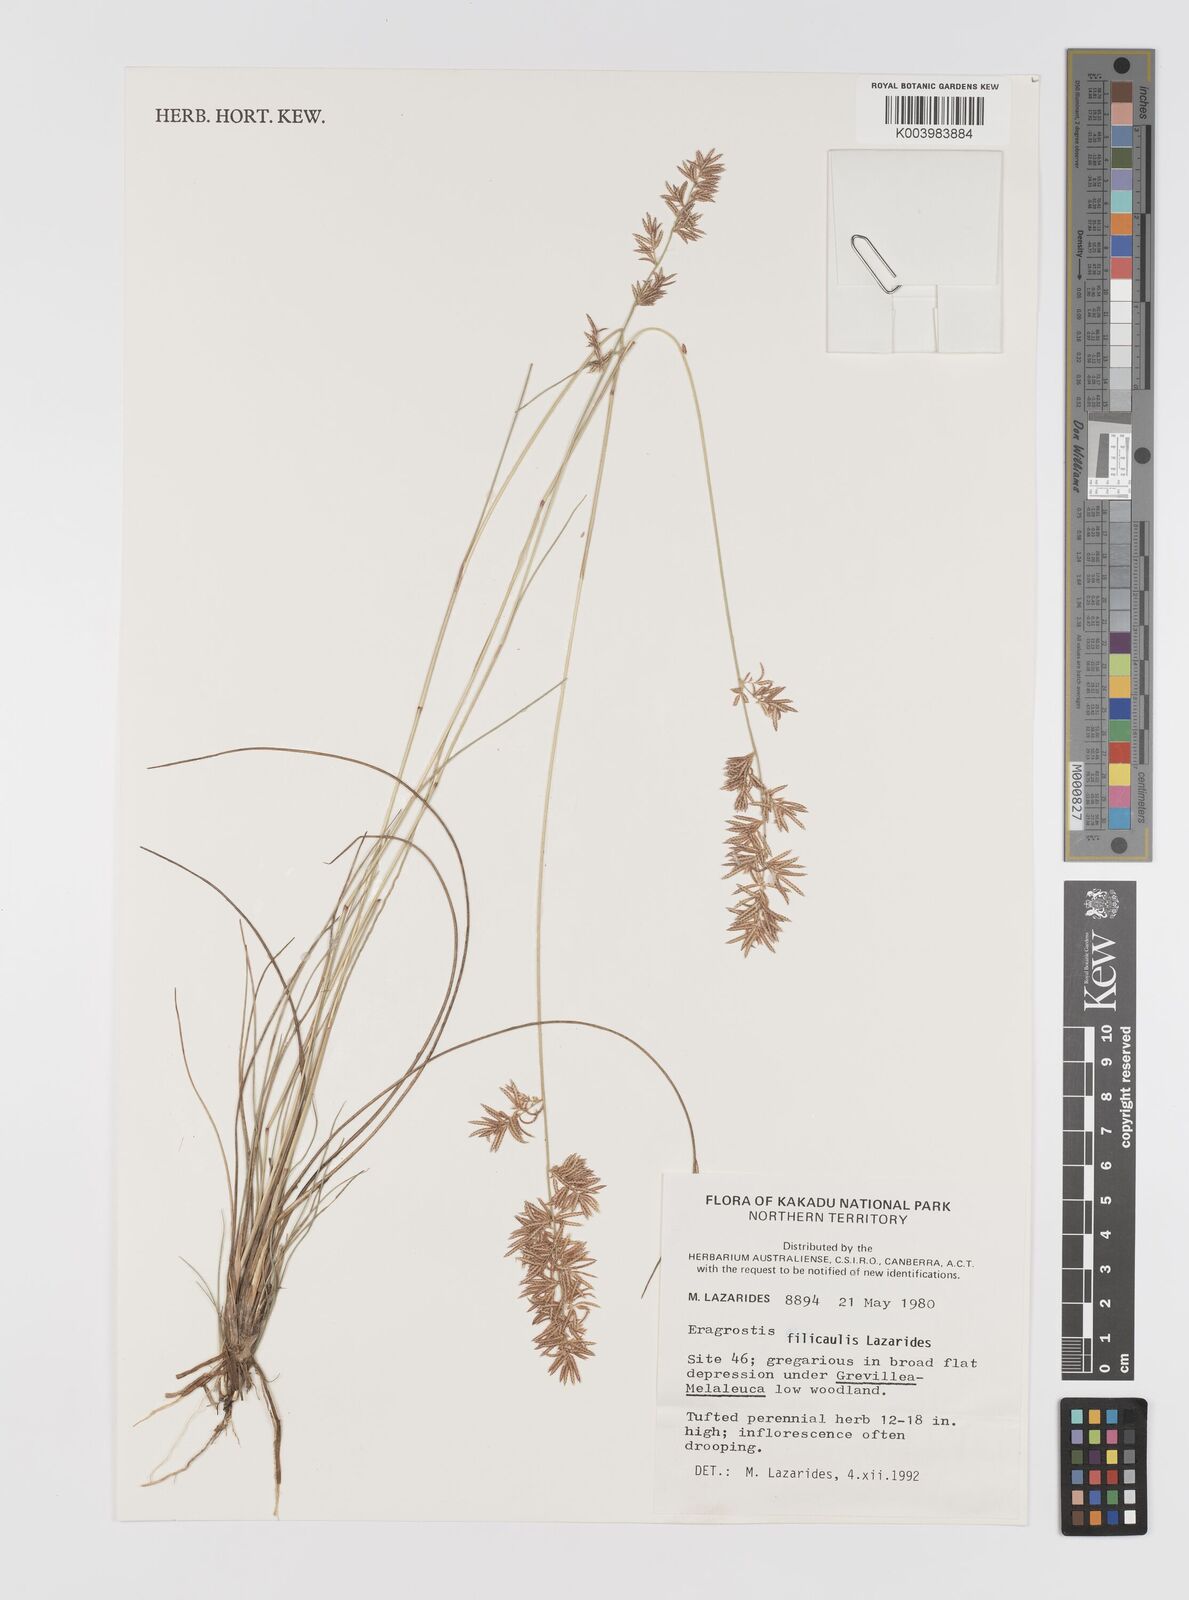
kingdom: Plantae
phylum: Tracheophyta
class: Liliopsida
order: Poales
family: Poaceae
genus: Eragrostis
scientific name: Eragrostis filicaulis
